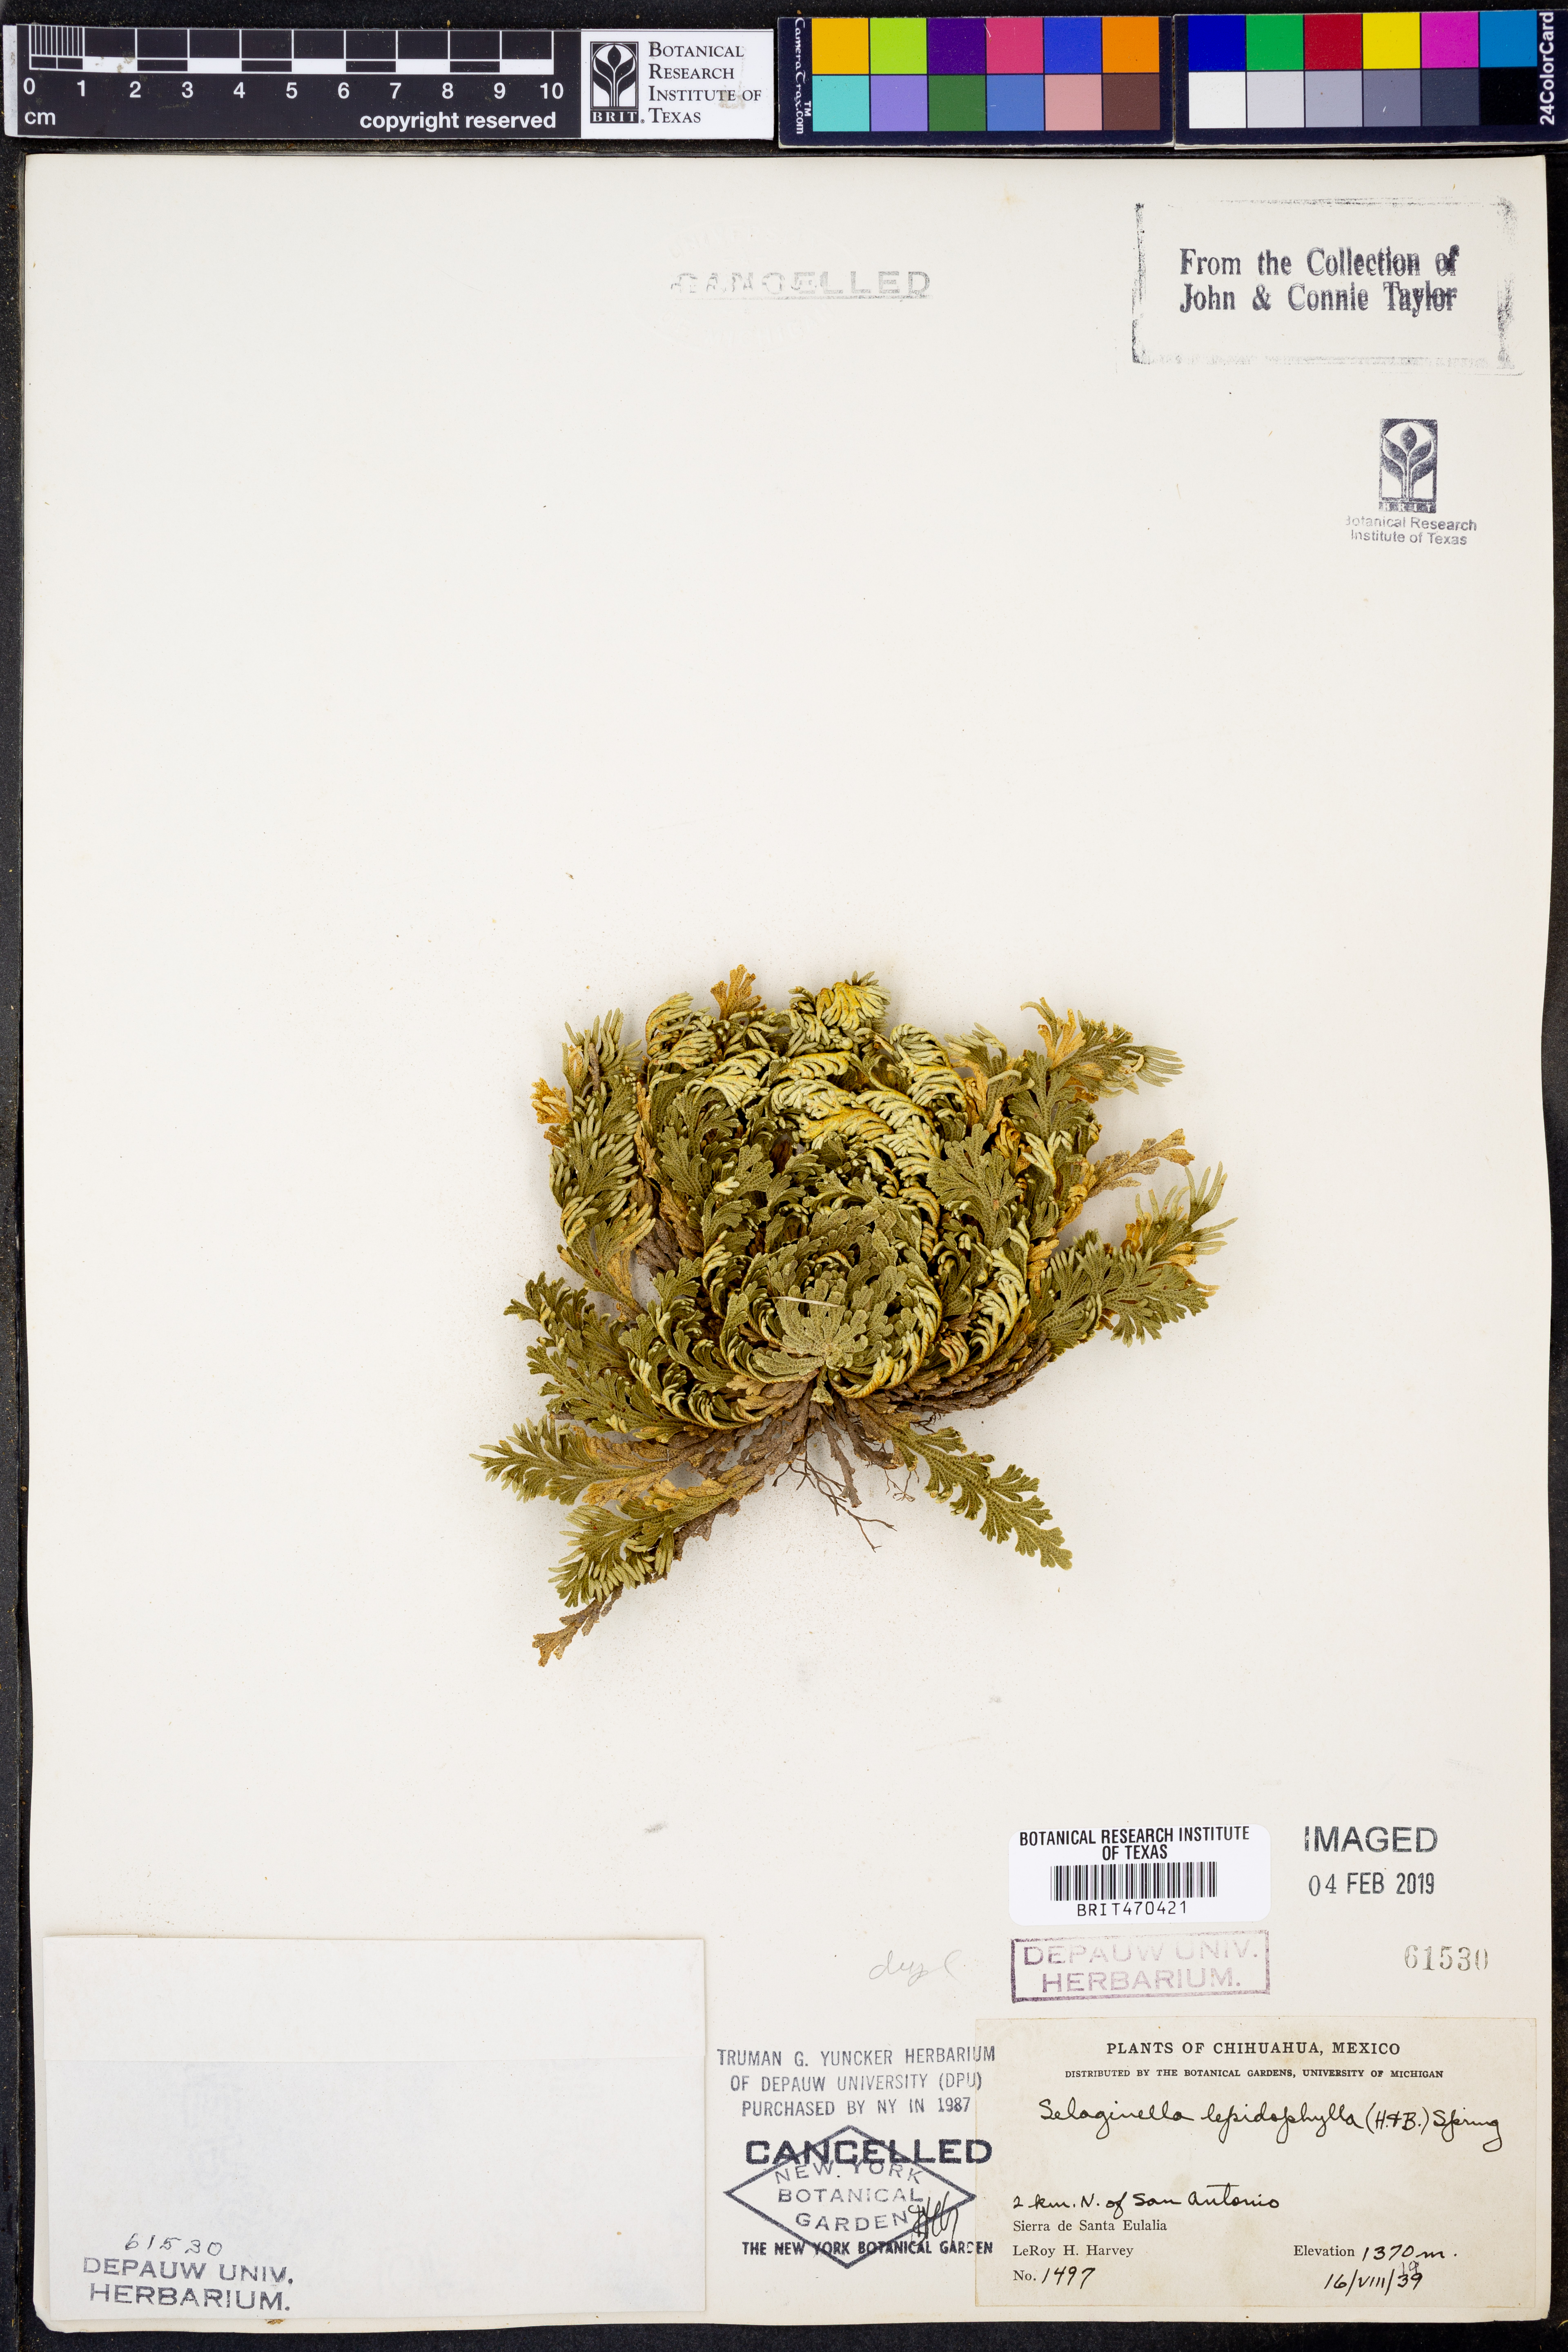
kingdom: Plantae
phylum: Tracheophyta
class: Lycopodiopsida
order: Selaginellales
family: Selaginellaceae
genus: Selaginella
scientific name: Selaginella lepidophylla
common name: Rose-of-jericho
